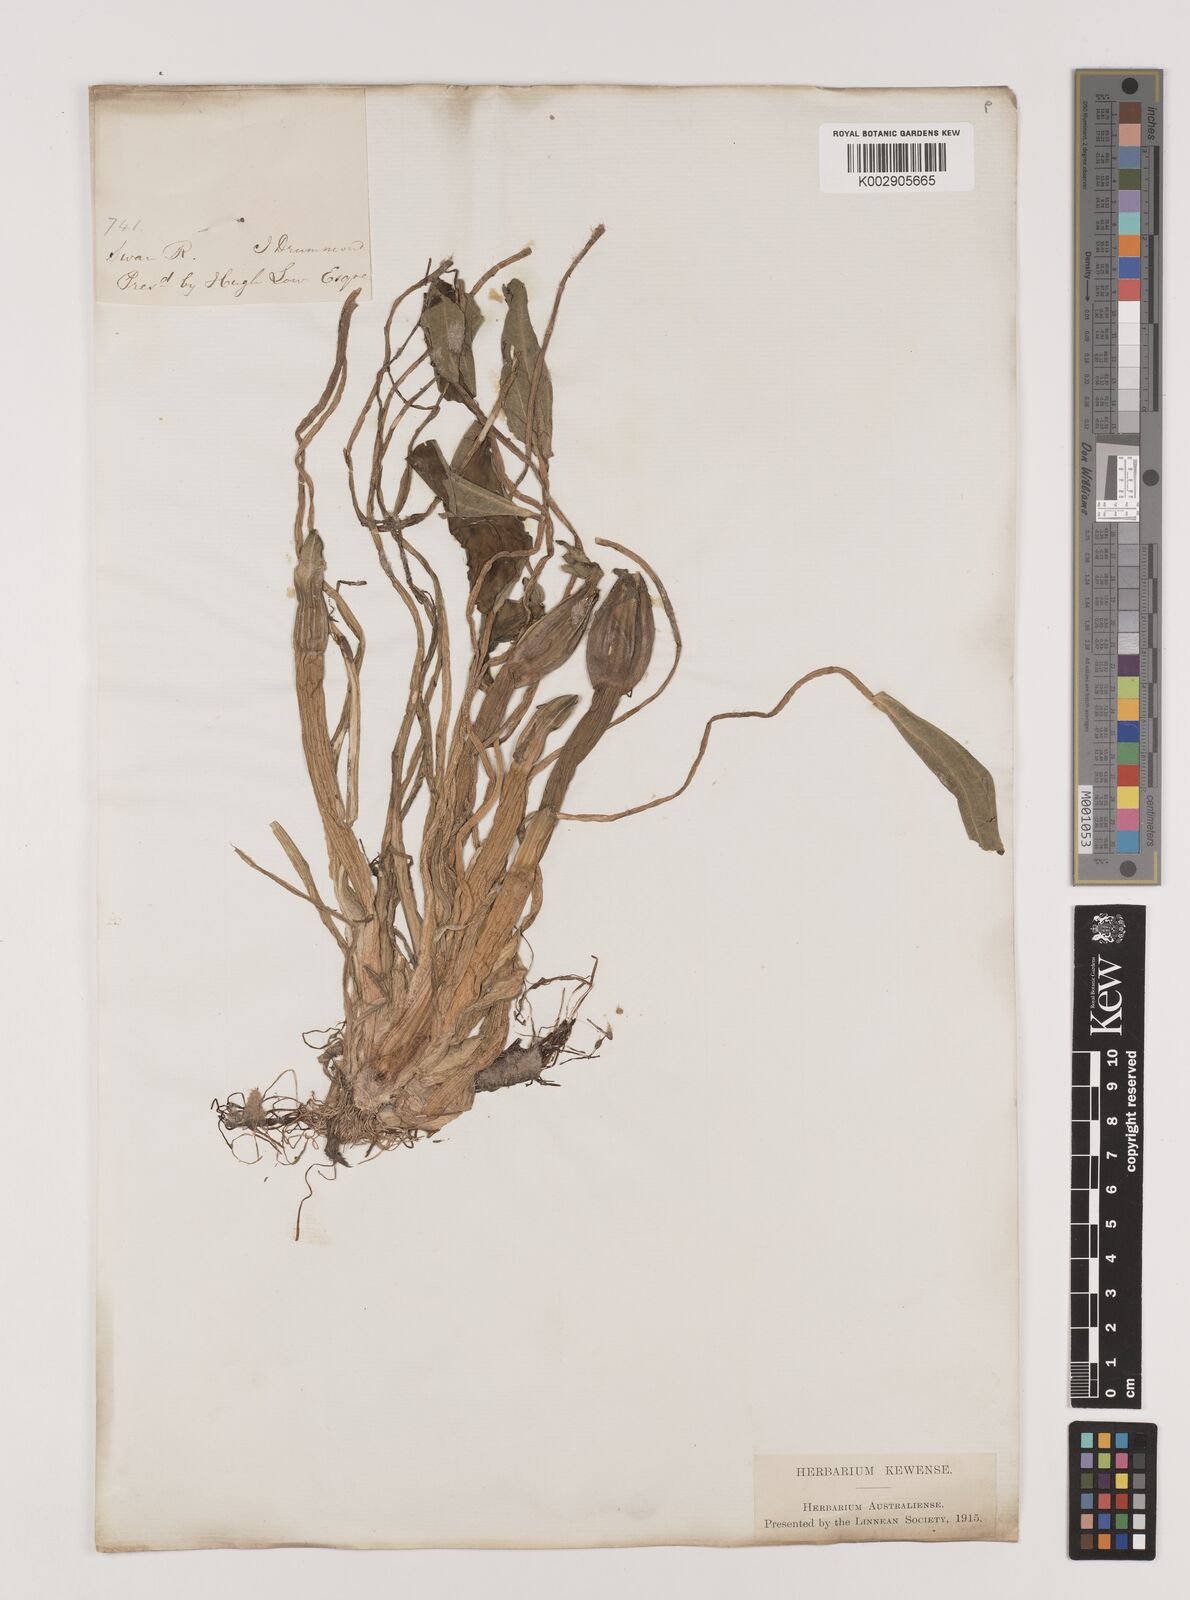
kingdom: Plantae
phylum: Tracheophyta
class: Liliopsida
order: Alismatales
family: Hydrocharitaceae
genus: Ottelia
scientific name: Ottelia ovalifolia
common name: Swamp-lily
